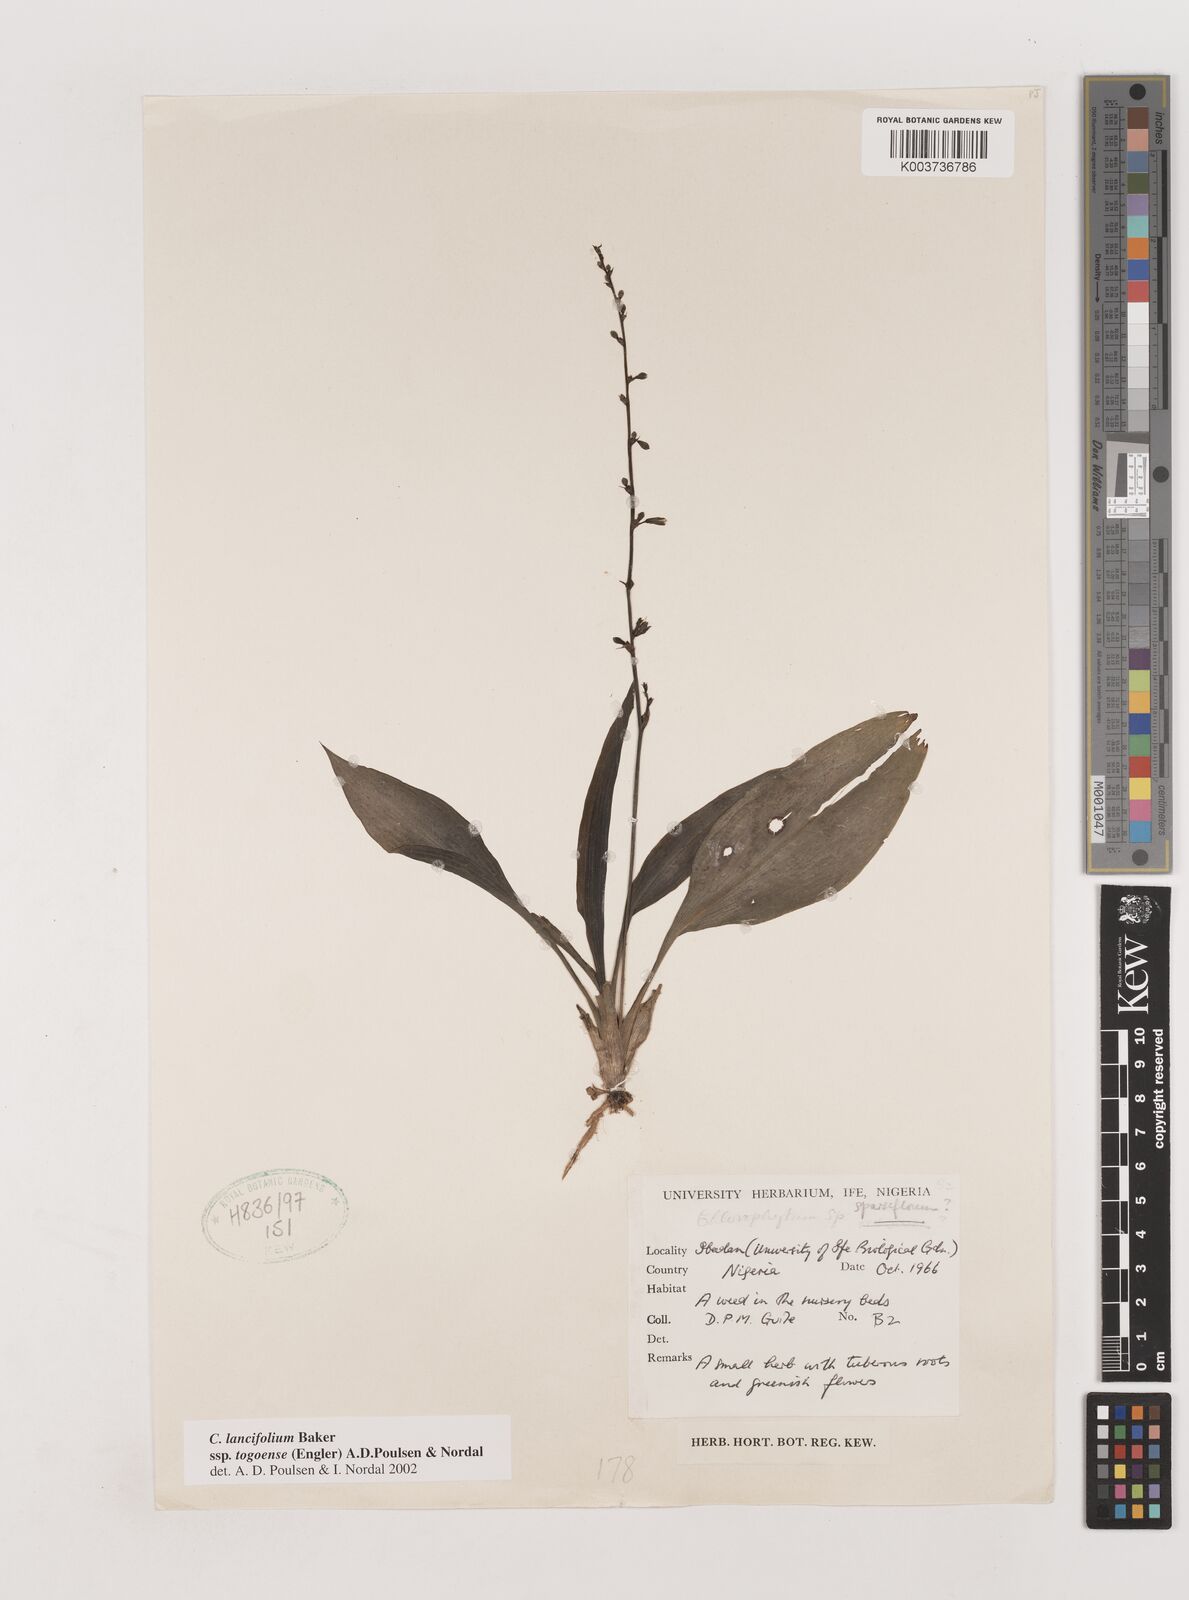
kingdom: Plantae
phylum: Tracheophyta
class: Liliopsida
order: Asparagales
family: Asparagaceae
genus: Chlorophytum
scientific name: Chlorophytum lancifolium
